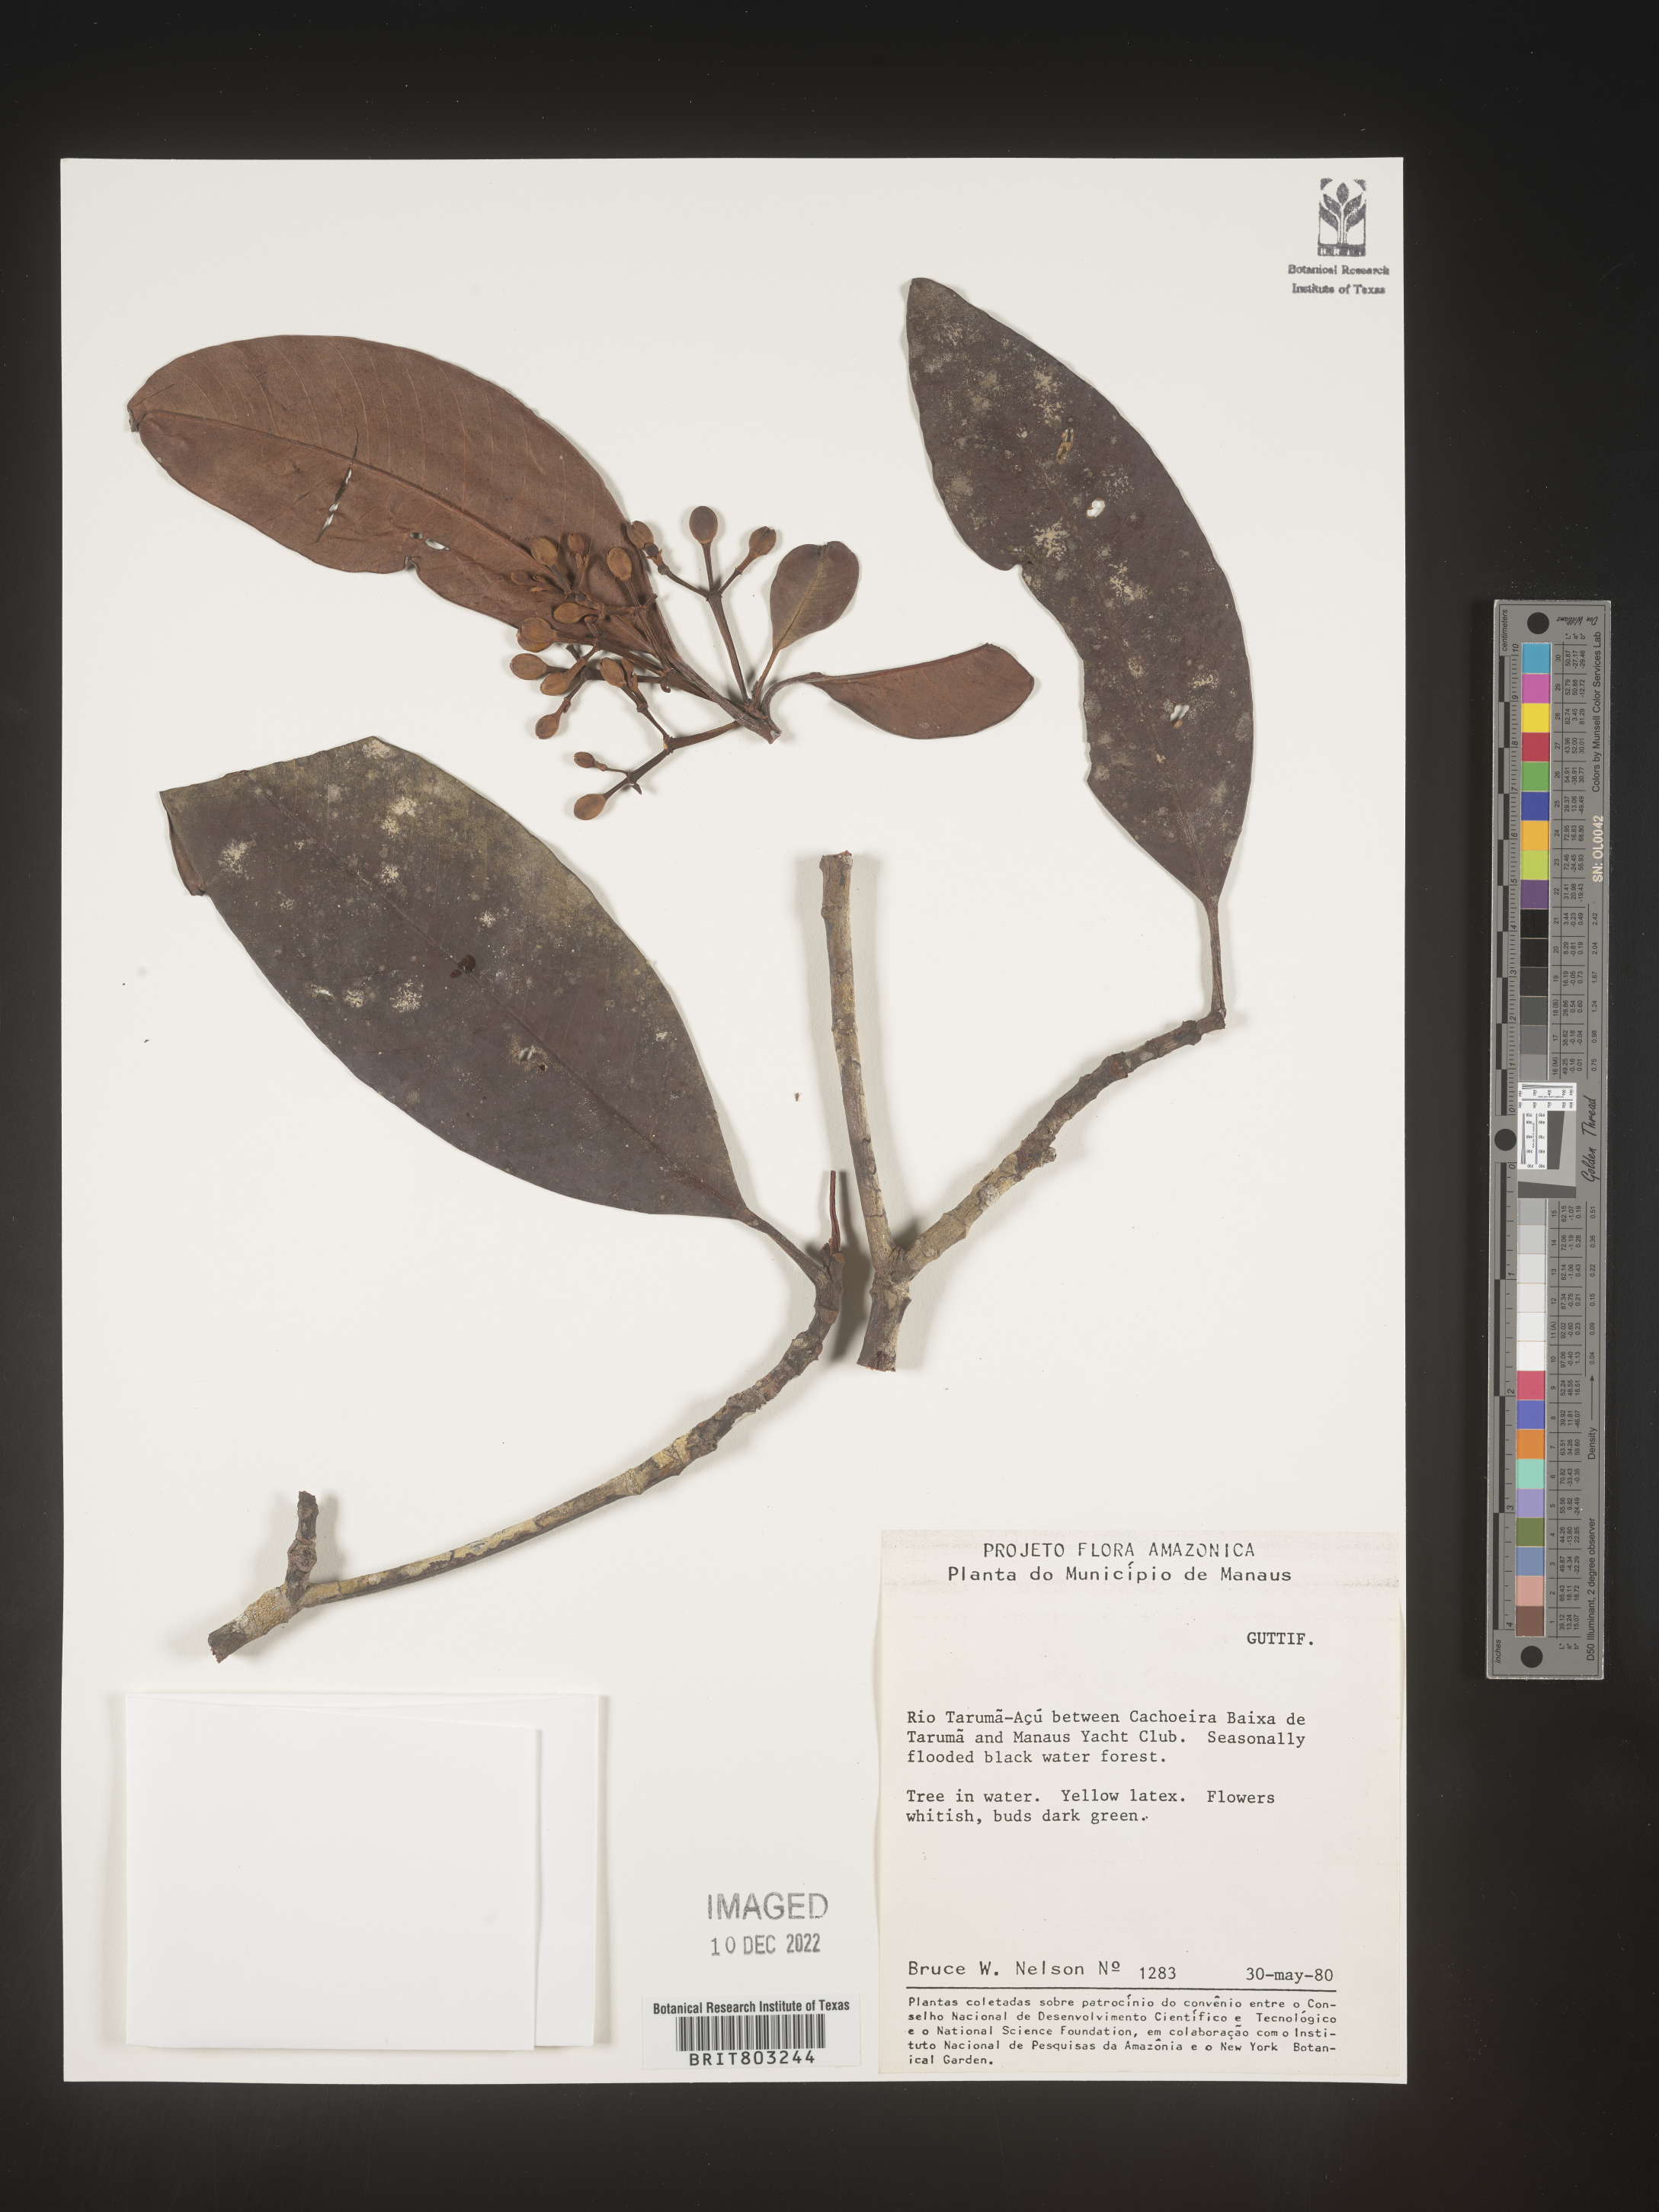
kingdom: Plantae
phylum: Tracheophyta
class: Magnoliopsida
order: Malpighiales
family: Clusiaceae
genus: Tovomita
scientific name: Tovomita
